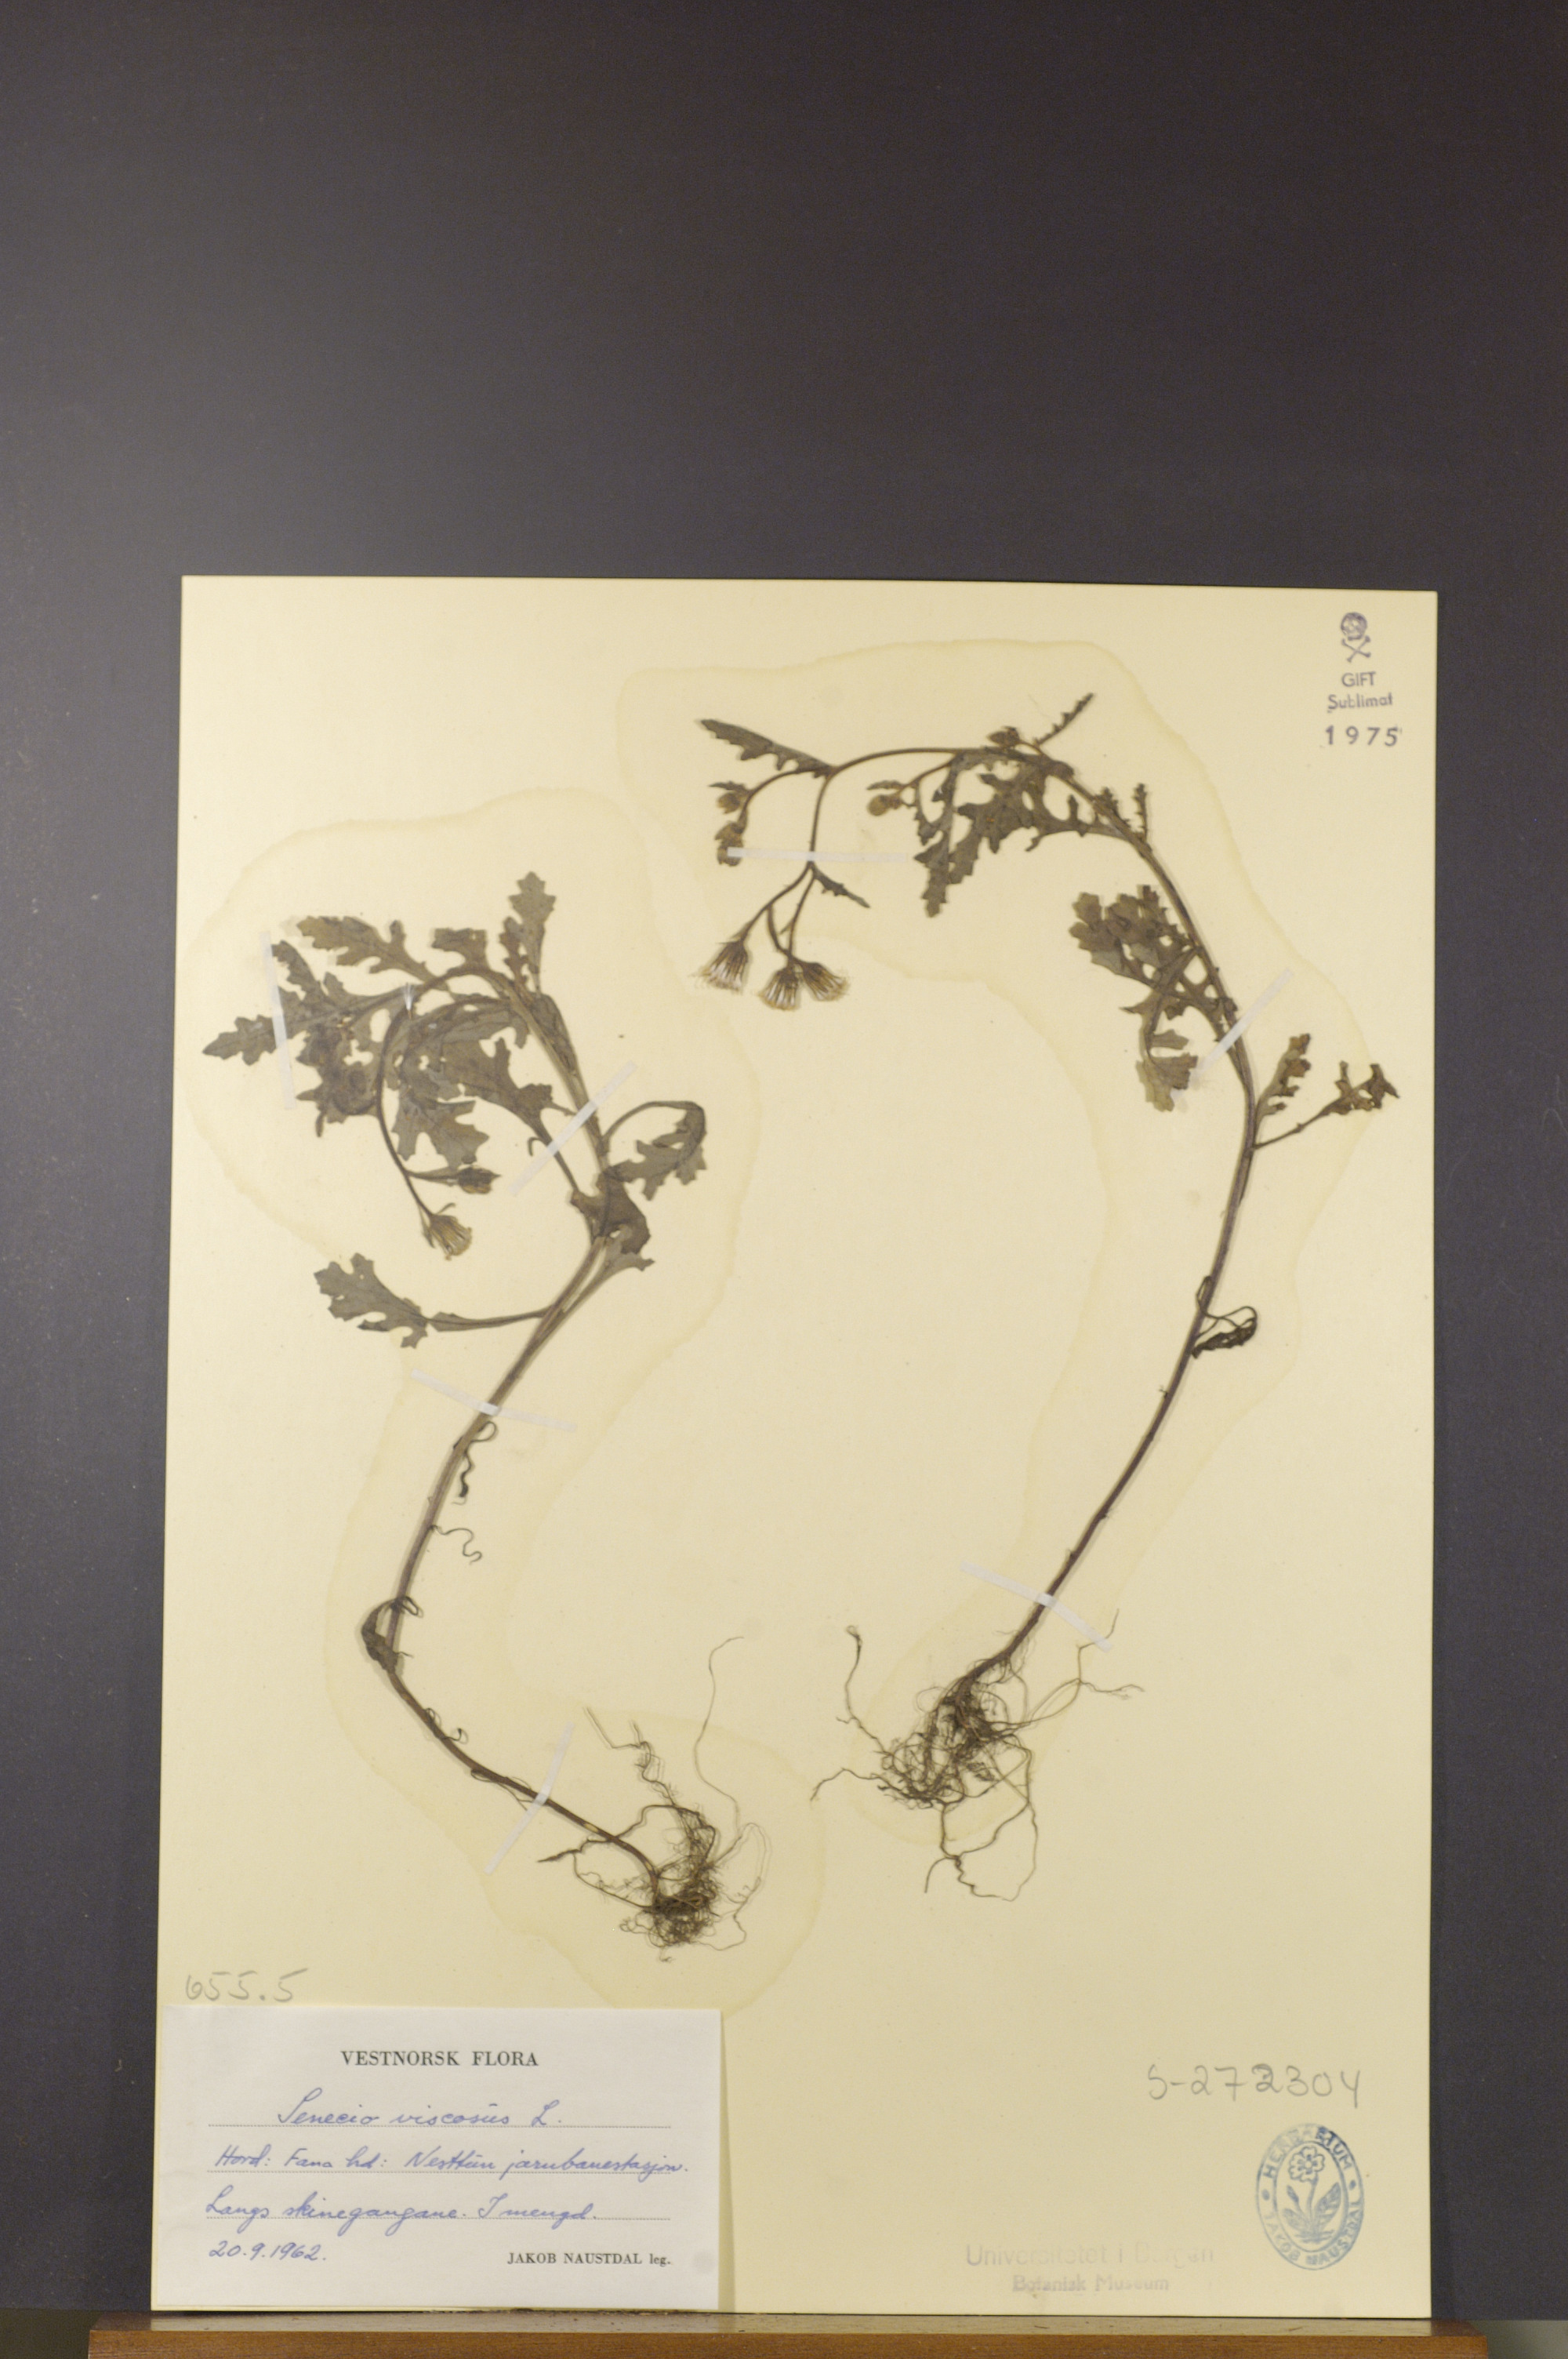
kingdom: Plantae
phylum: Tracheophyta
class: Magnoliopsida
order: Asterales
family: Asteraceae
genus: Senecio
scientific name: Senecio viscosus
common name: Sticky groundsel
